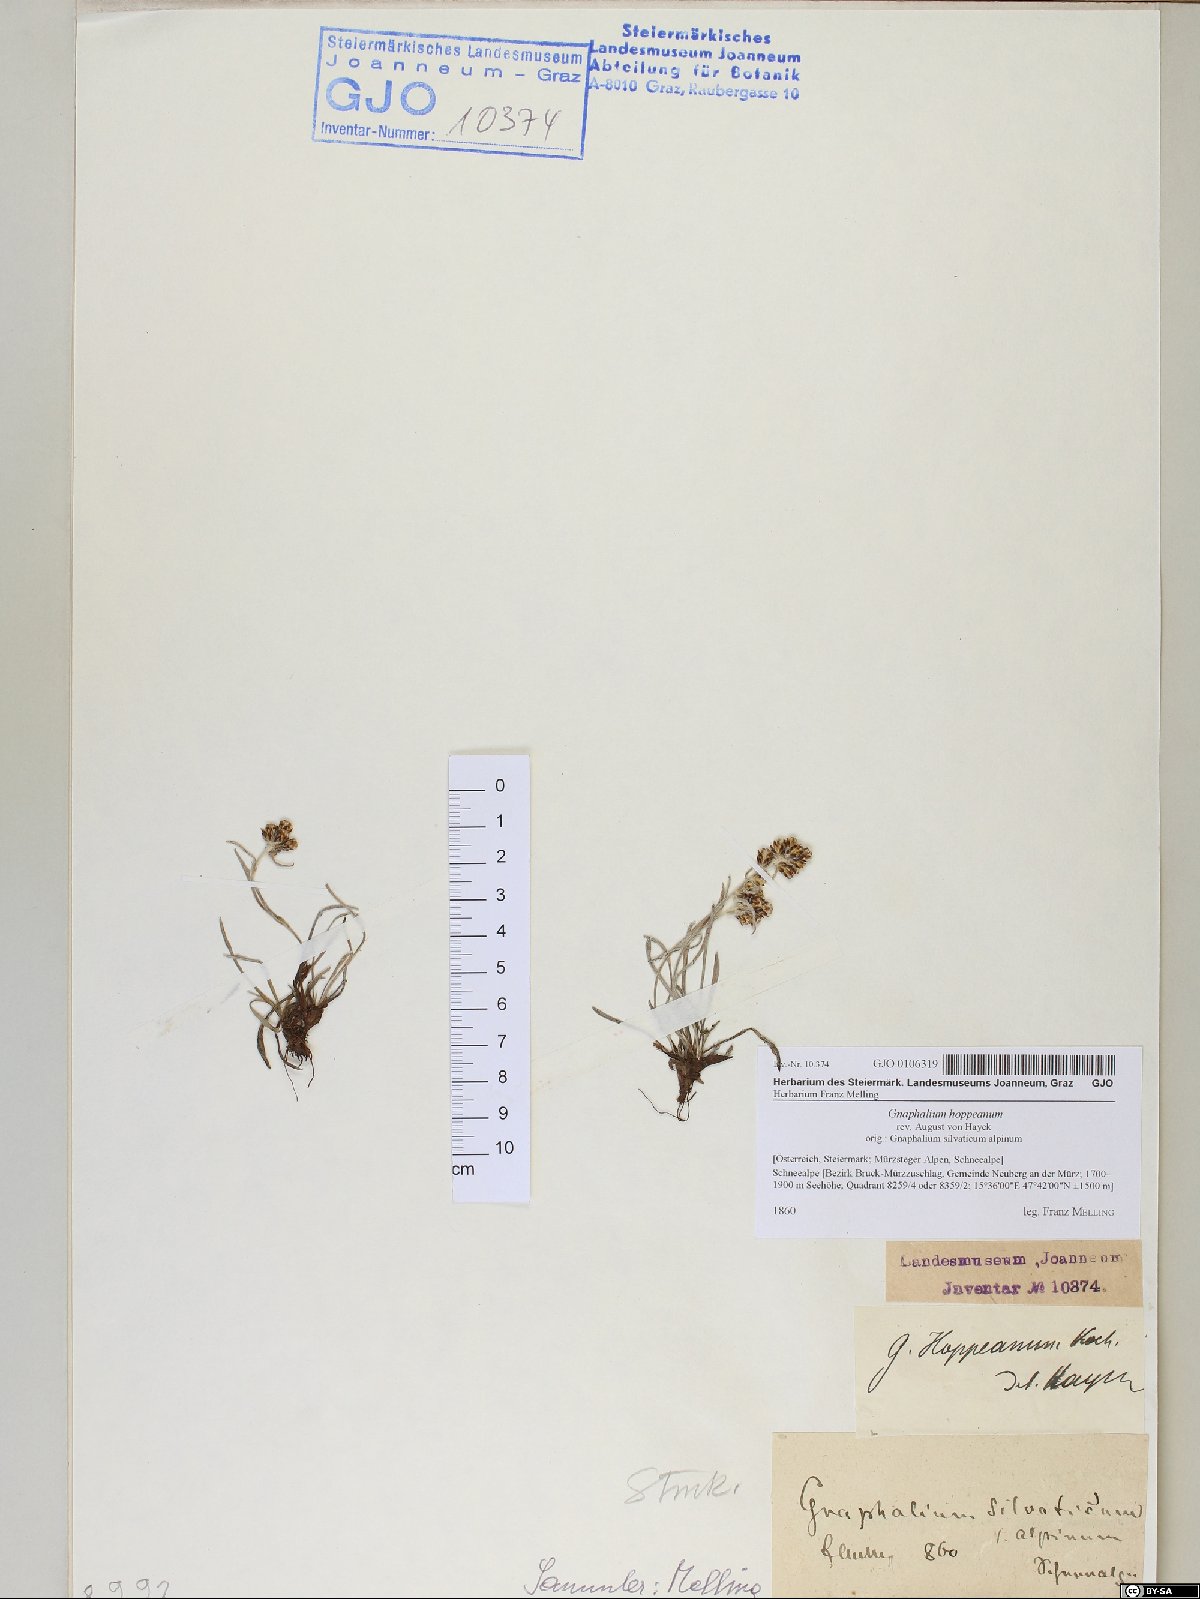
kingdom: Plantae
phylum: Tracheophyta
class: Magnoliopsida
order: Asterales
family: Asteraceae
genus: Omalotheca
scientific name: Omalotheca hoppeana
